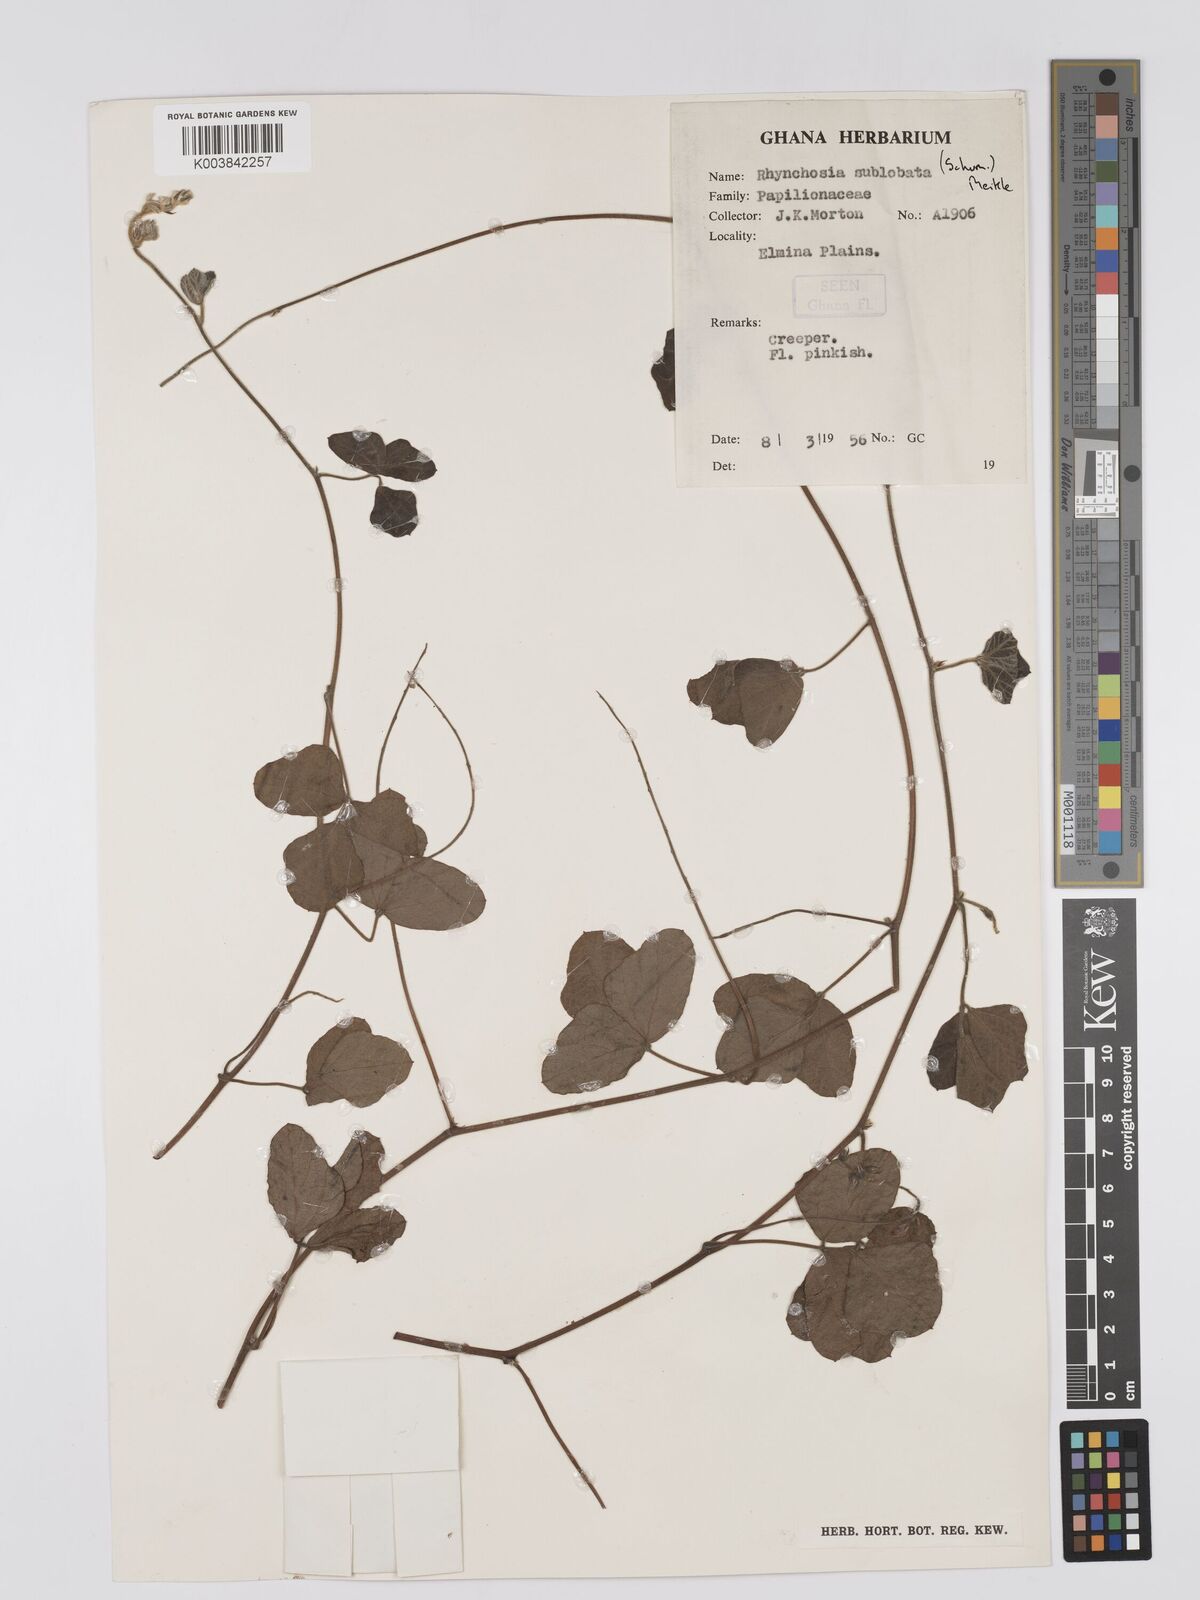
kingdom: Plantae
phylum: Tracheophyta
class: Magnoliopsida
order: Fabales
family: Fabaceae
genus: Rhynchosia
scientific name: Rhynchosia sublobata
